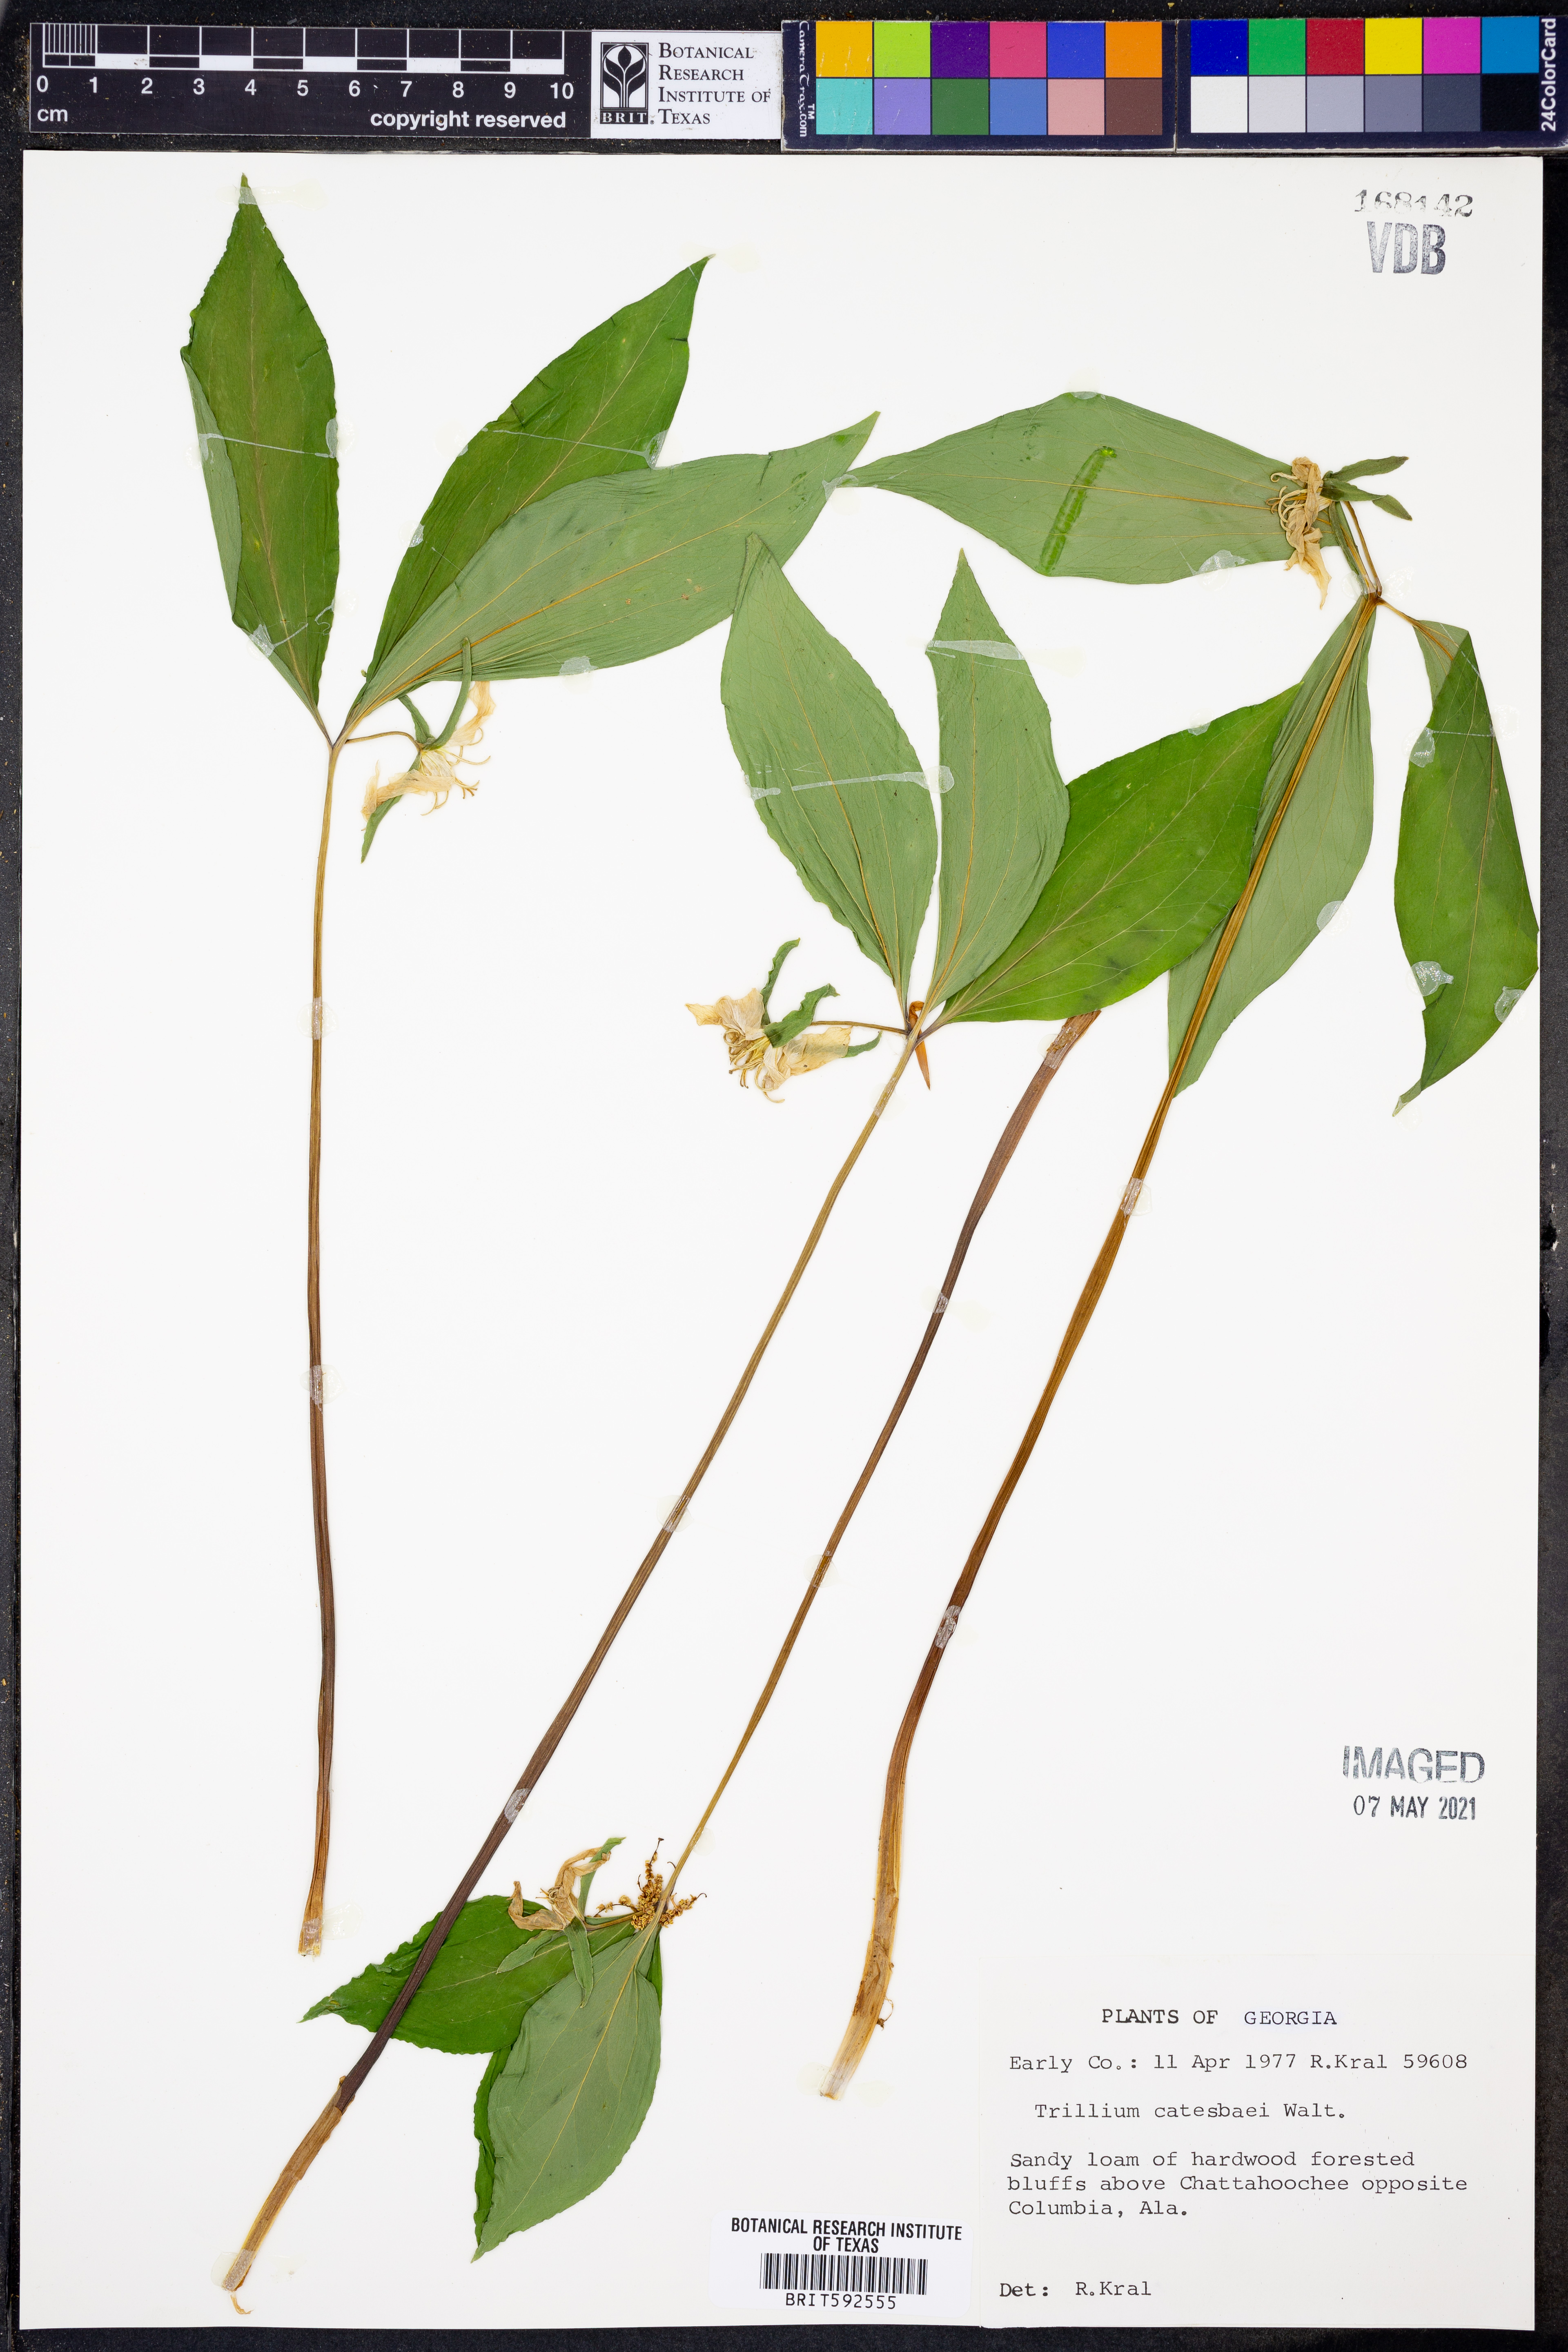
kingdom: Plantae
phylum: Tracheophyta
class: Liliopsida
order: Liliales
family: Melanthiaceae
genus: Trillium
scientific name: Trillium catesbaei
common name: Bashful trillium
